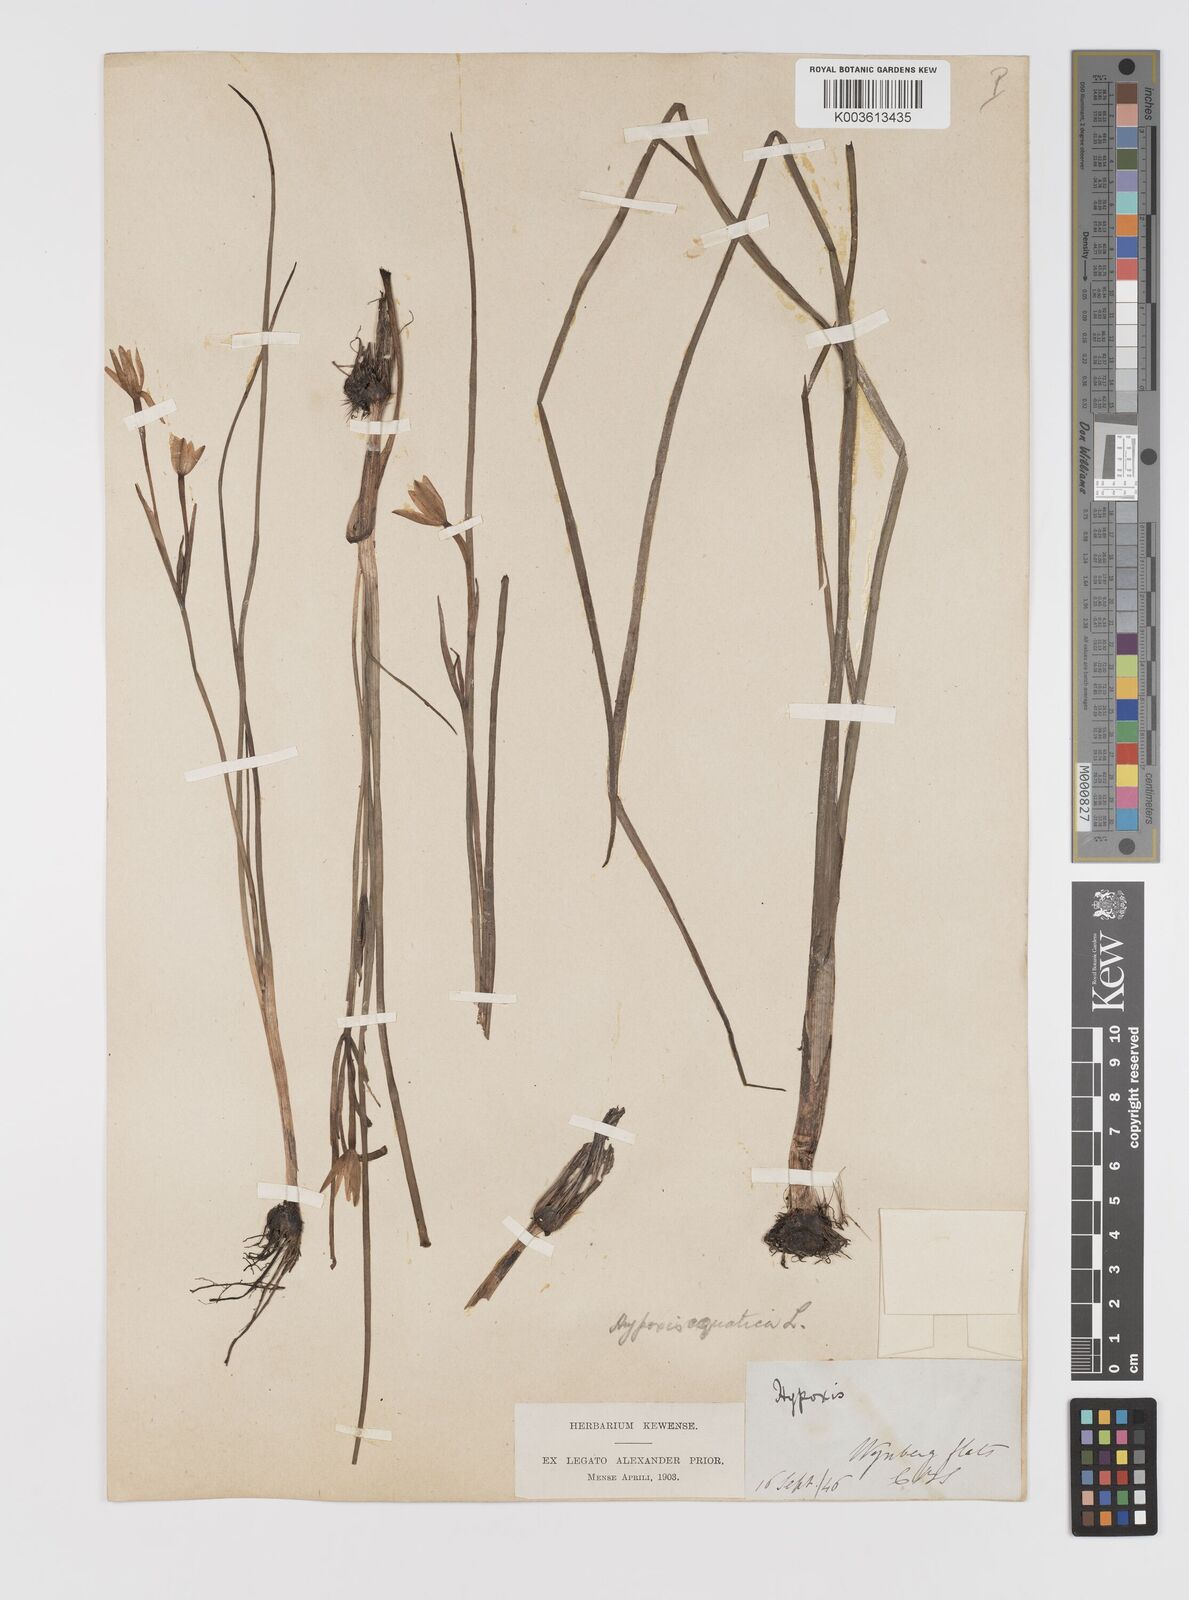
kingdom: Plantae
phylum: Tracheophyta
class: Liliopsida
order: Asparagales
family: Hypoxidaceae
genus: Pauridia
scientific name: Pauridia aquatica
